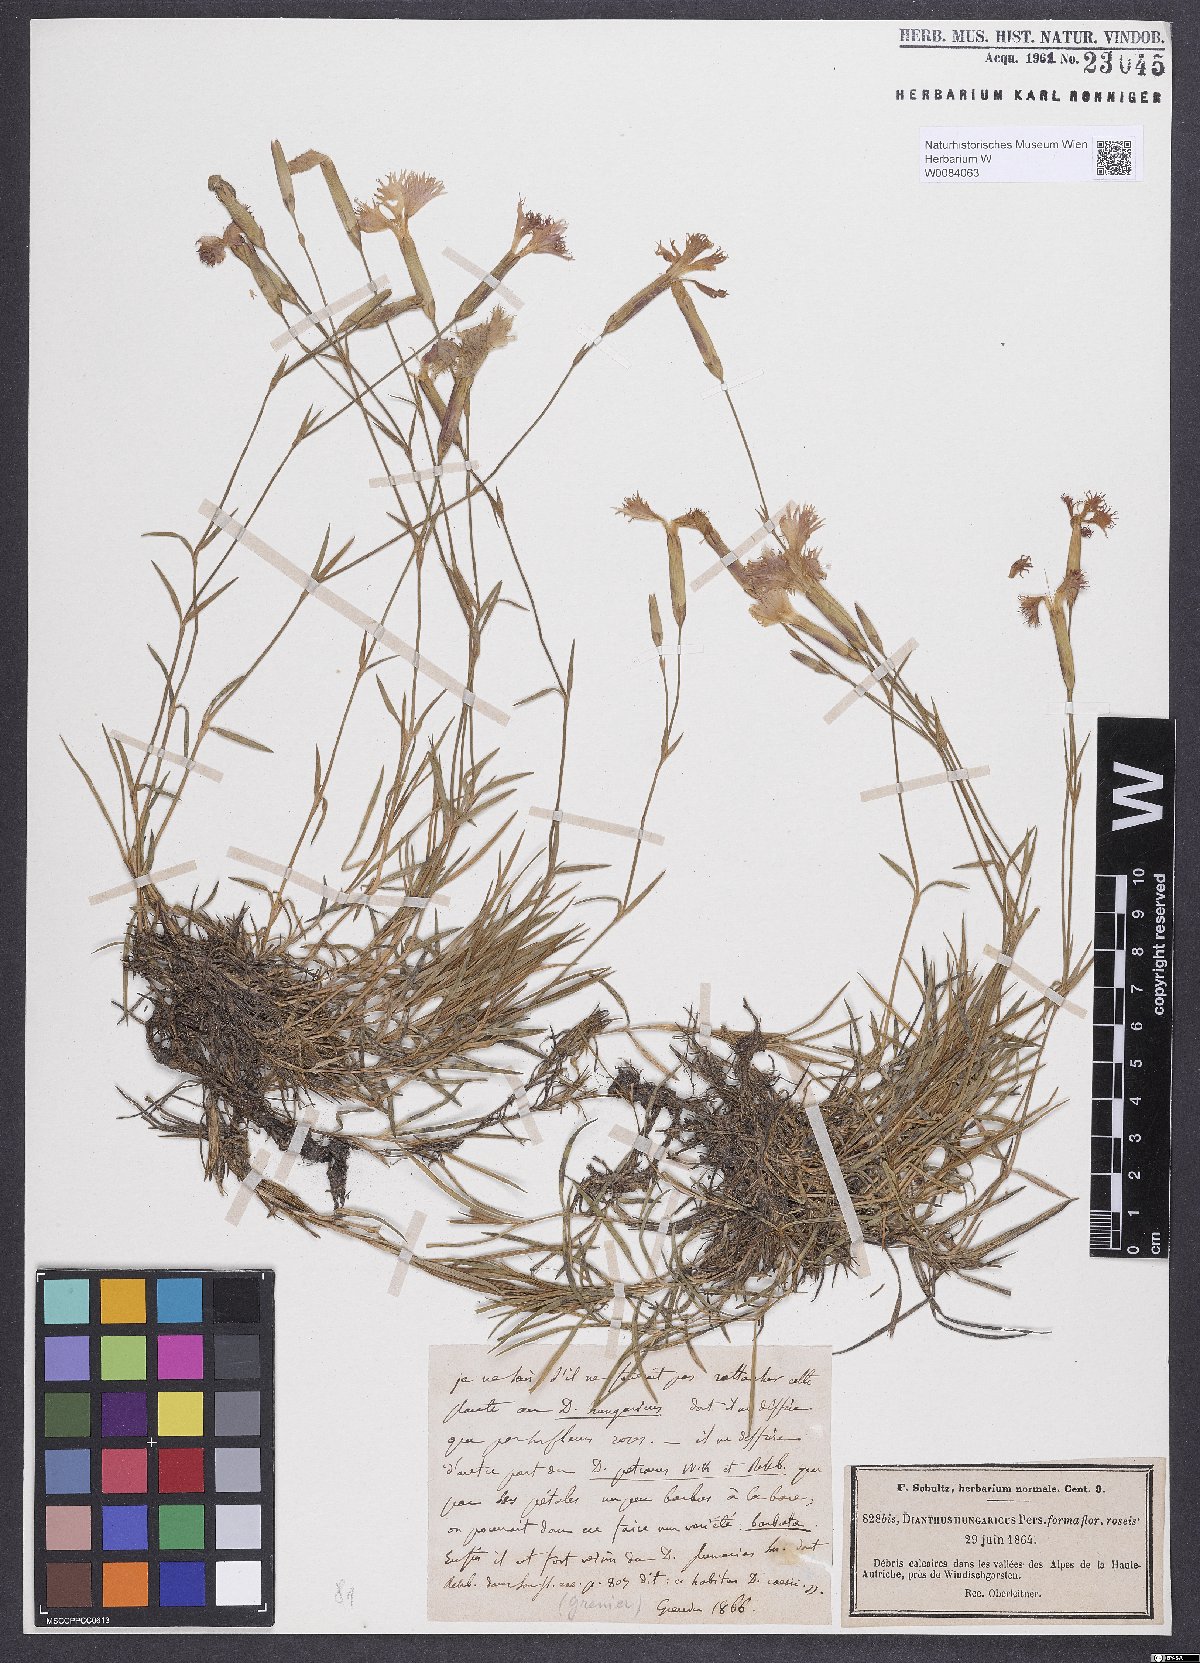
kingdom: Plantae
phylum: Tracheophyta
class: Magnoliopsida
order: Caryophyllales
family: Caryophyllaceae
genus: Dianthus
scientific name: Dianthus plumarius
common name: Pink
